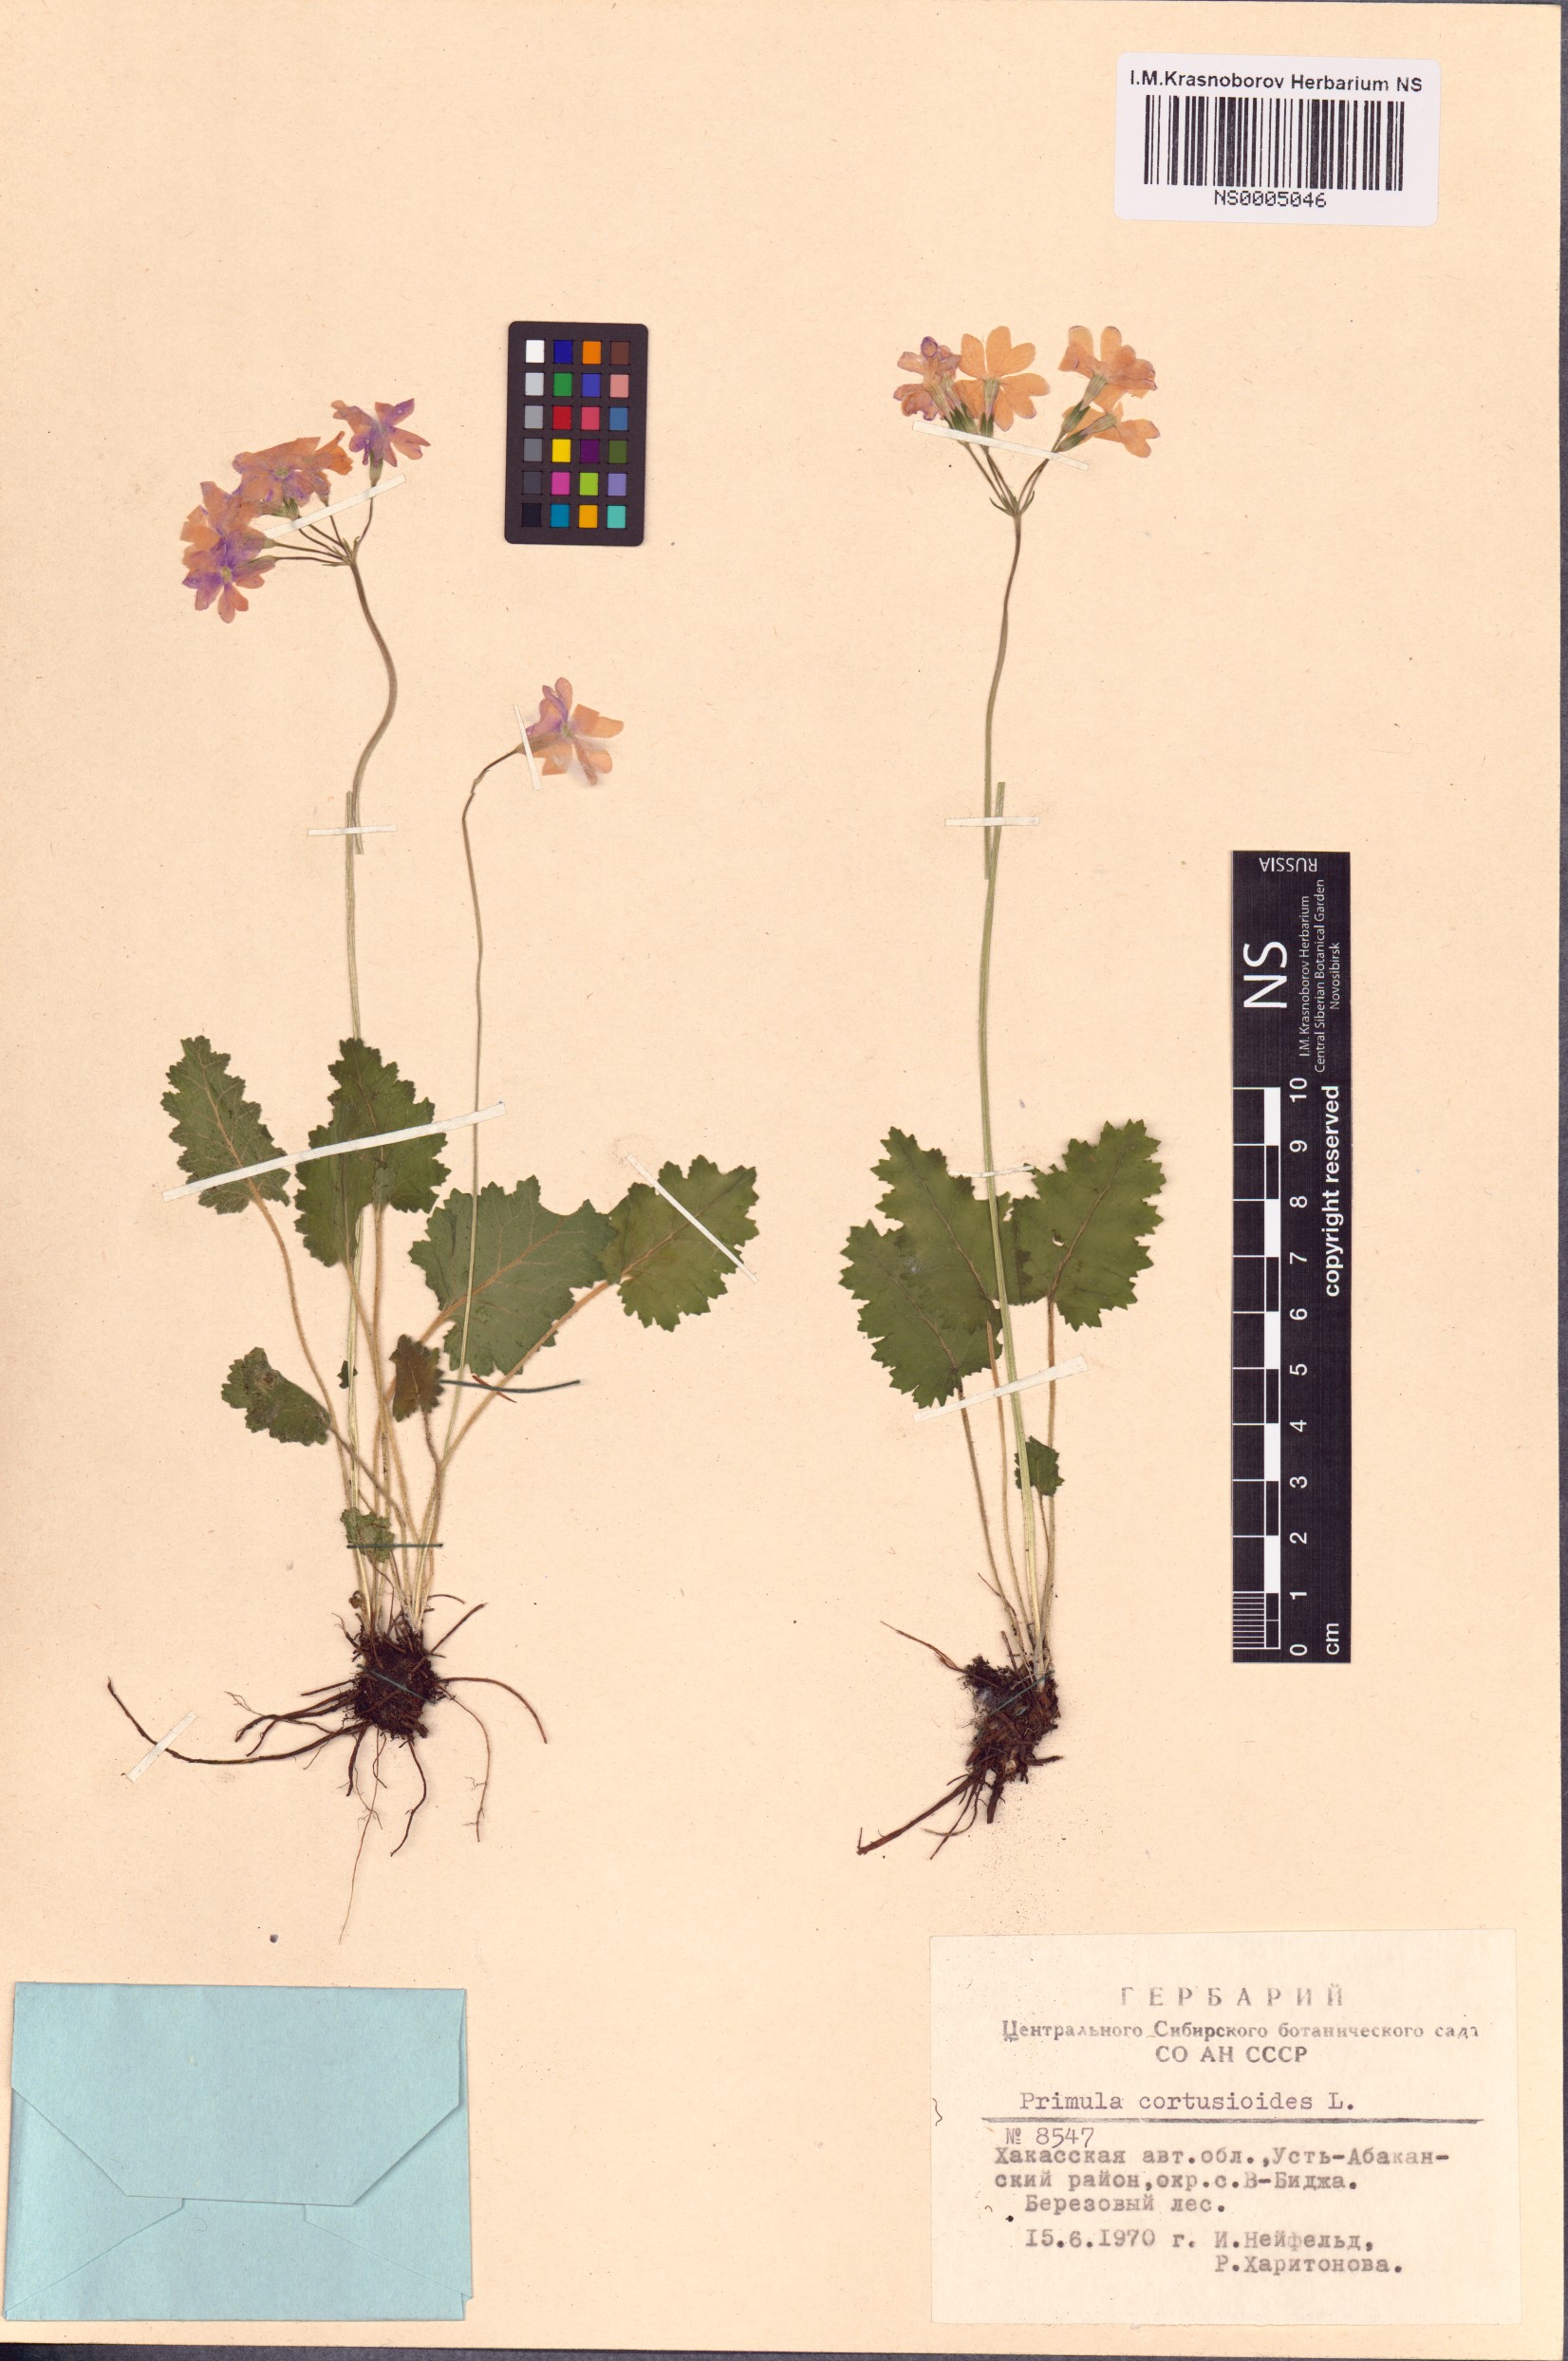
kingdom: Plantae
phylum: Tracheophyta
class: Magnoliopsida
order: Ericales
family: Primulaceae
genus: Primula
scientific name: Primula cortusoides
